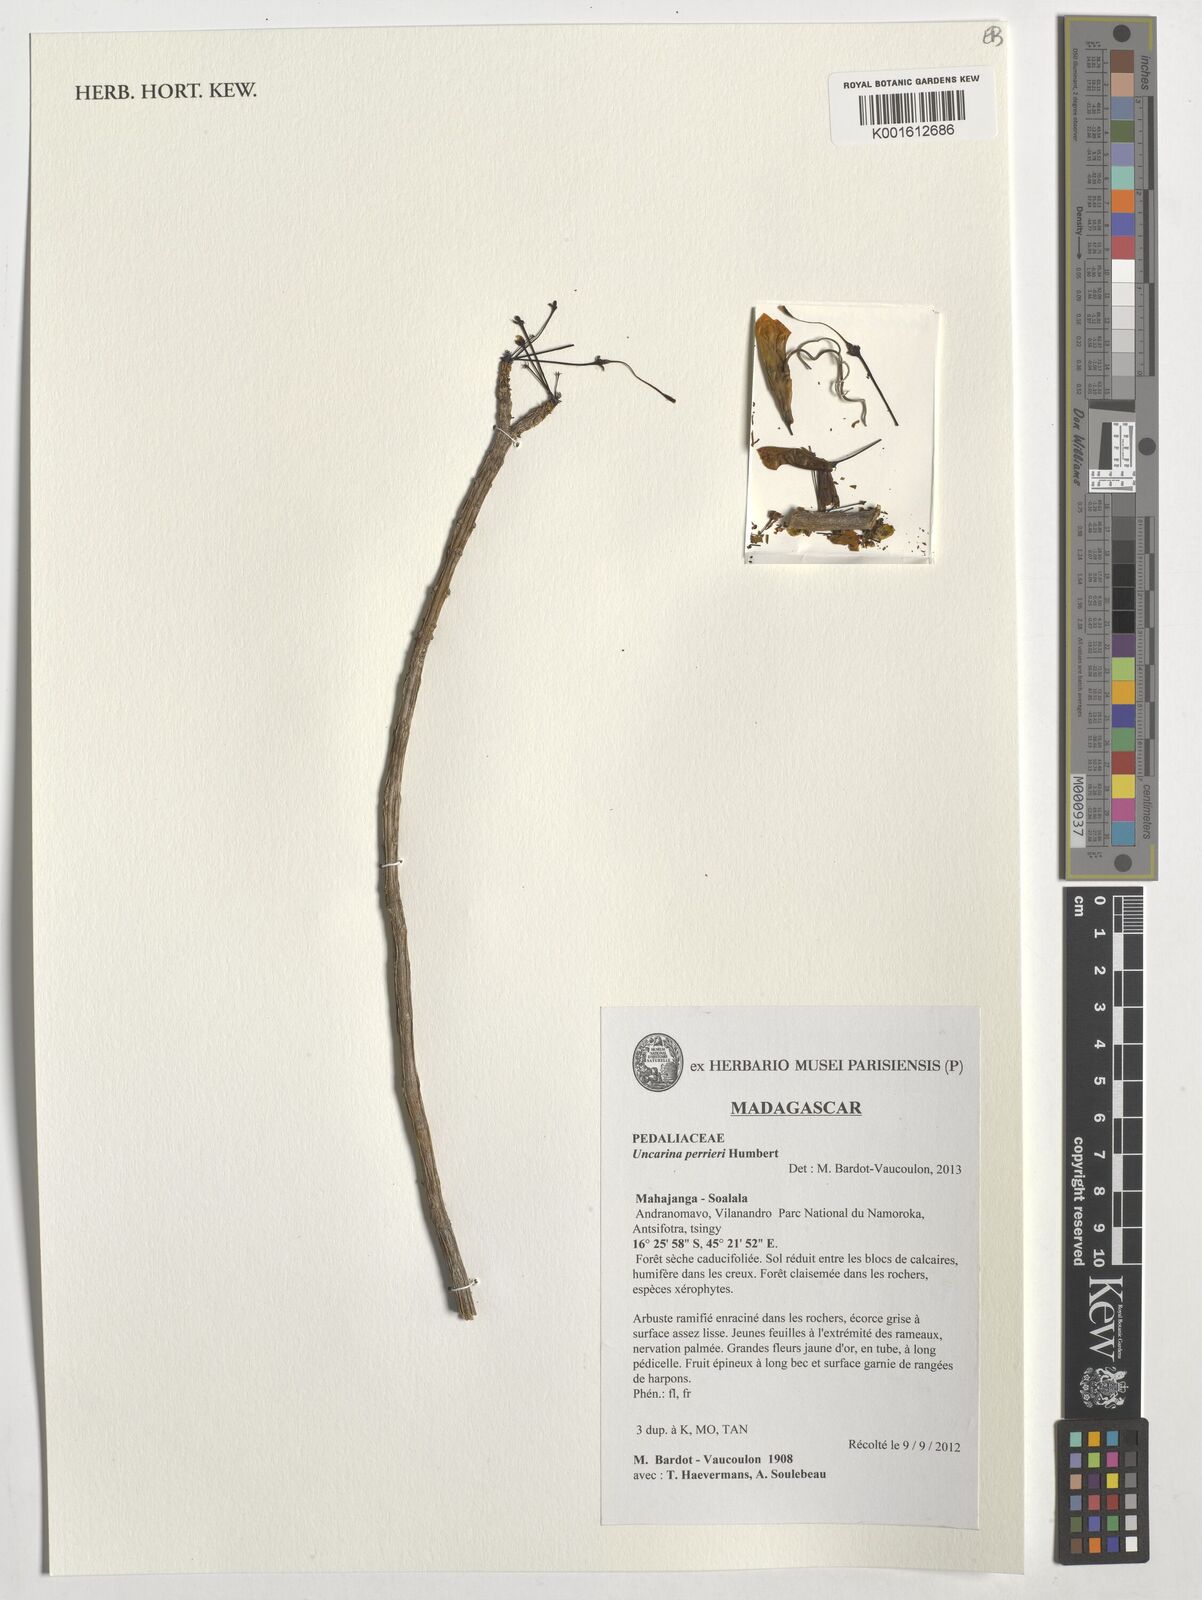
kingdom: Plantae
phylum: Tracheophyta
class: Magnoliopsida
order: Lamiales
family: Pedaliaceae
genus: Uncarina
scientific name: Uncarina perrieri
